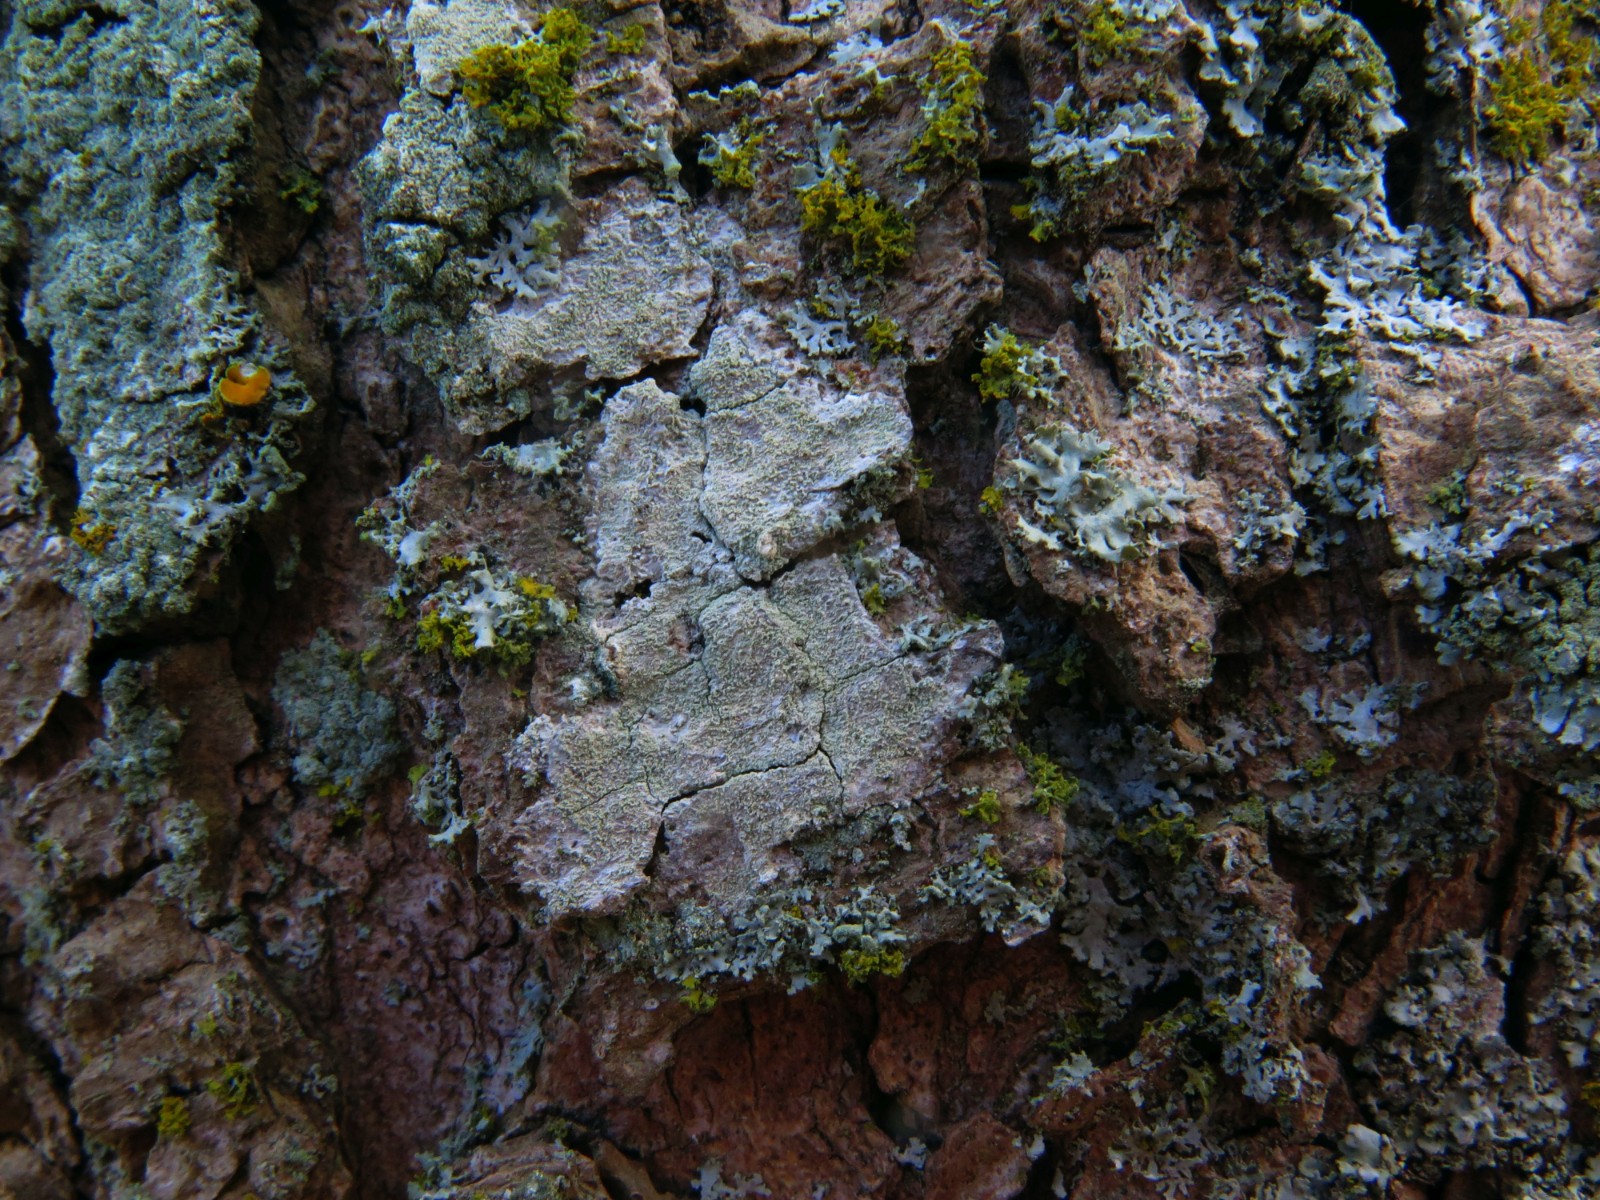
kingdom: Fungi
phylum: Ascomycota
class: Lecanoromycetes
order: Ostropales
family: Phlyctidaceae
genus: Phlyctis
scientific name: Phlyctis argena
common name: almindelig sølvlav
